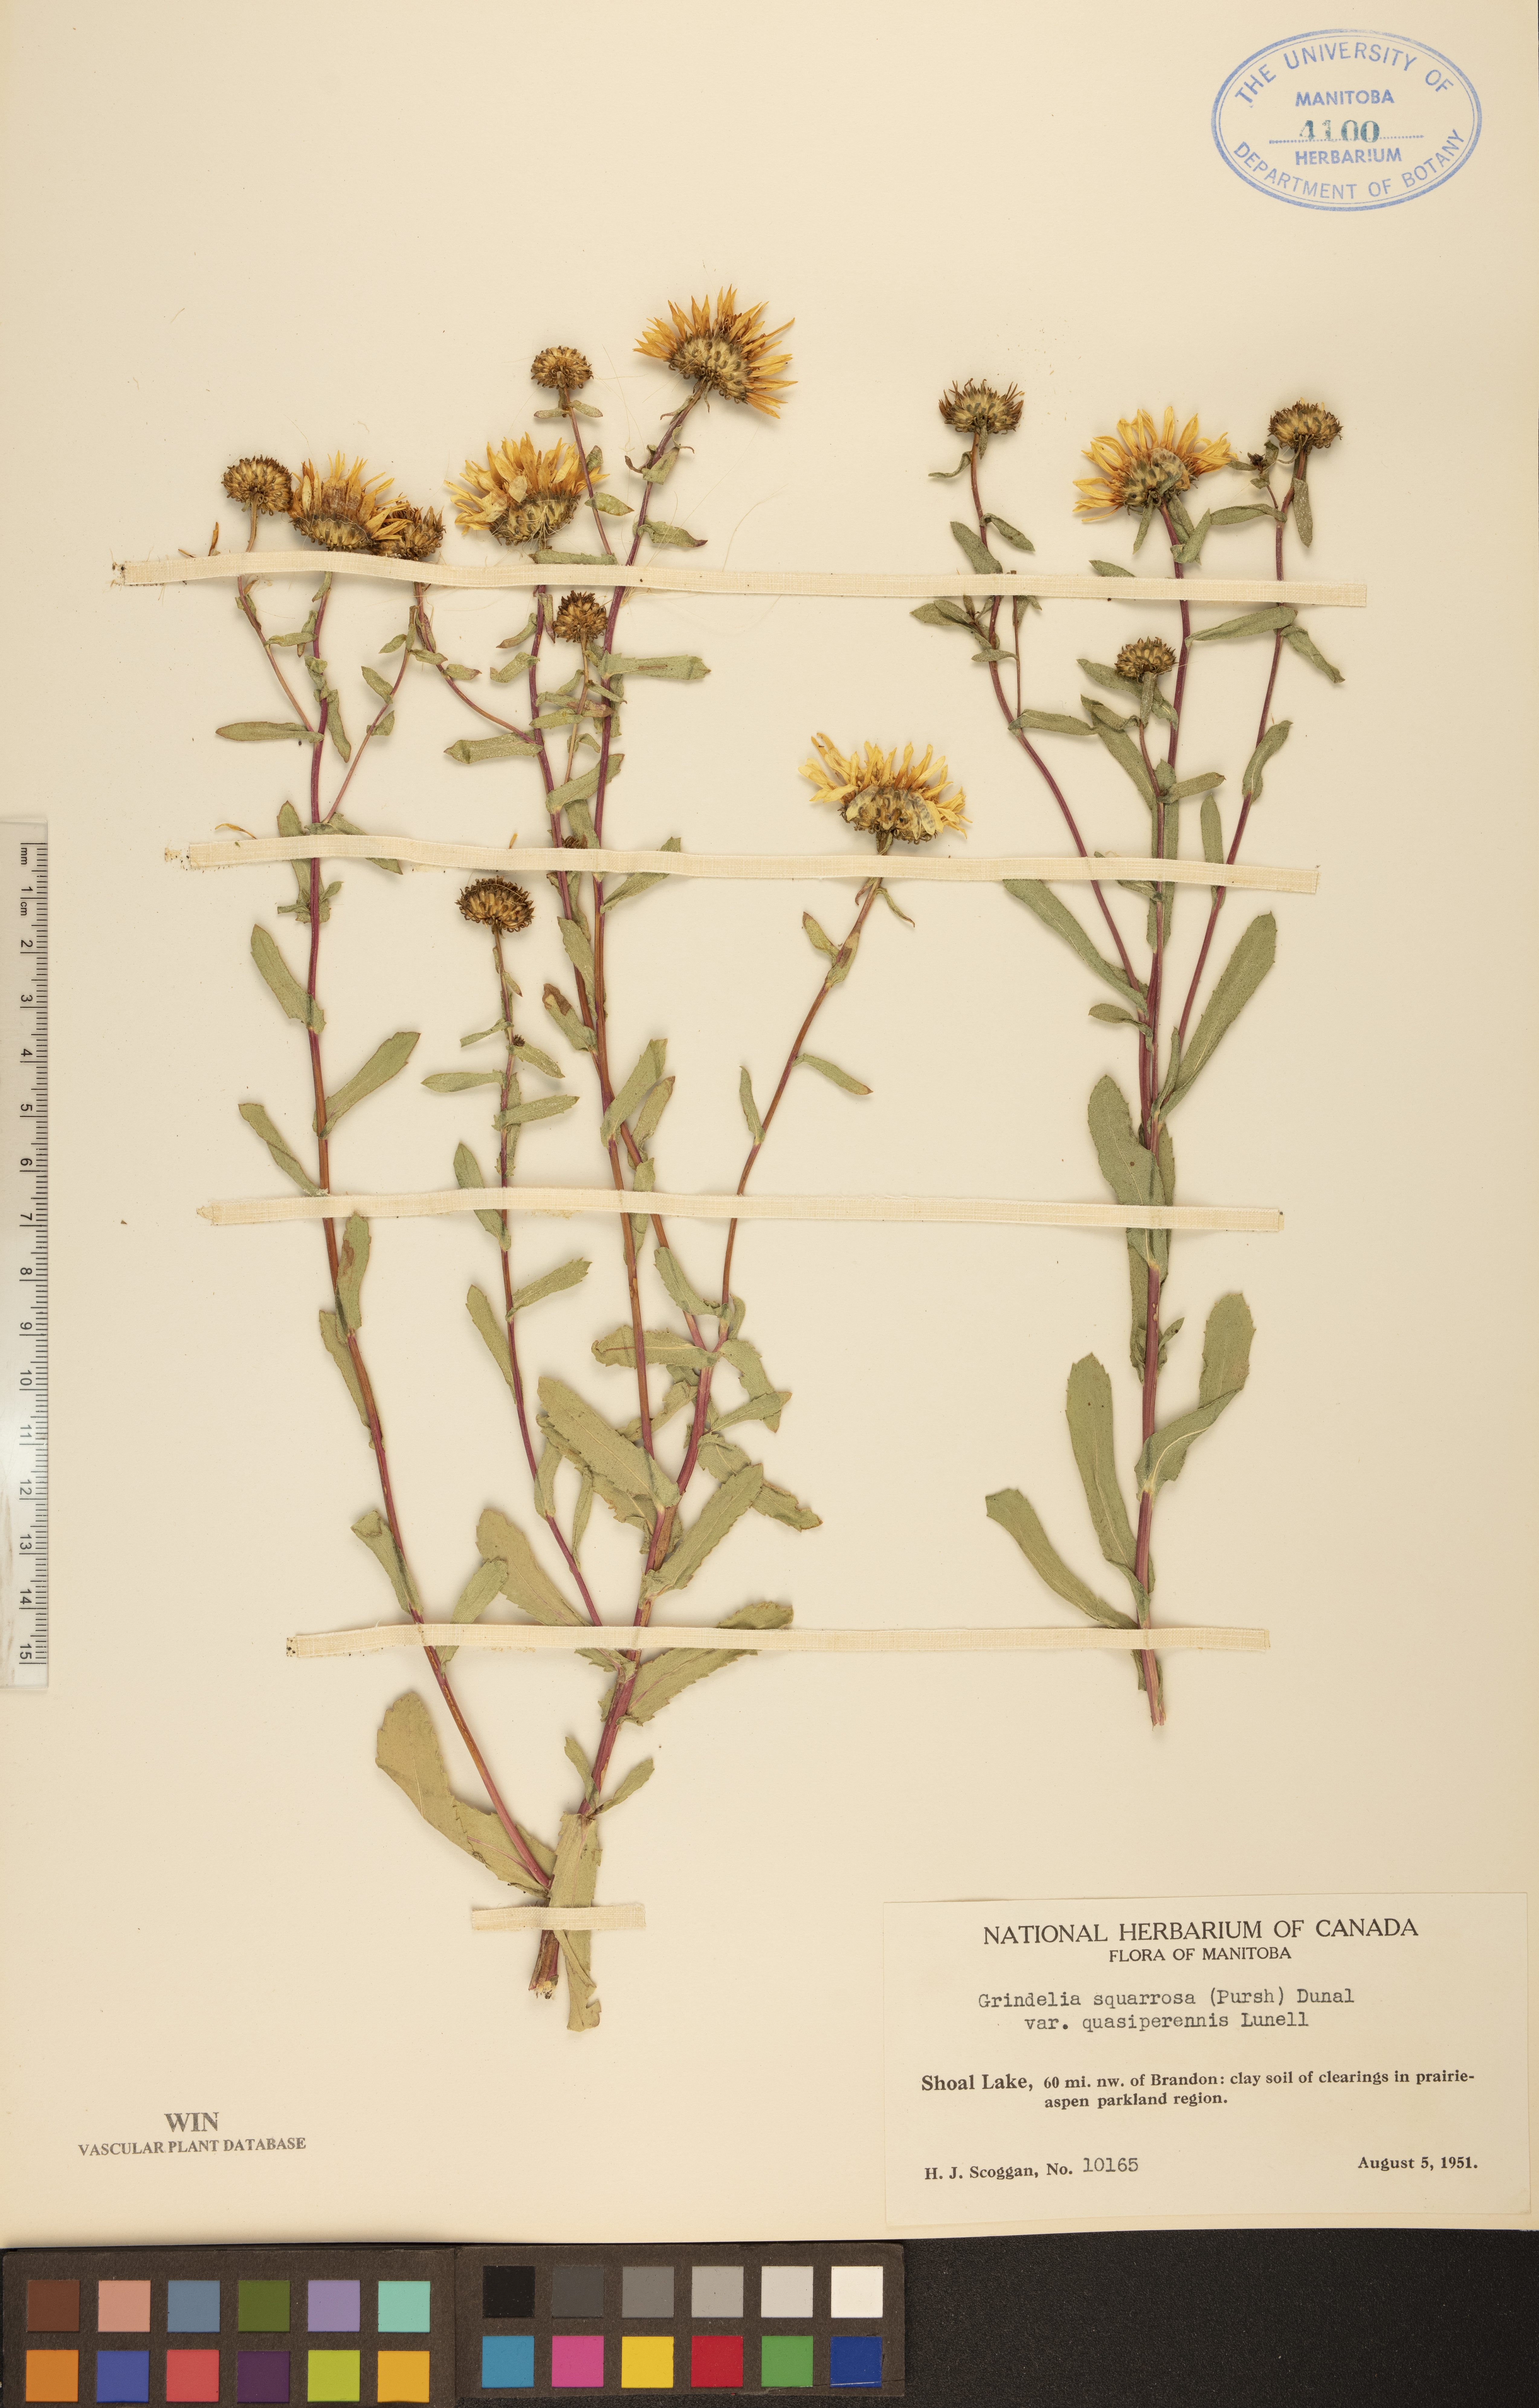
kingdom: Plantae
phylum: Tracheophyta
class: Magnoliopsida
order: Asterales
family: Asteraceae
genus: Grindelia
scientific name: Grindelia hirsutula
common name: Hairy gumweed
